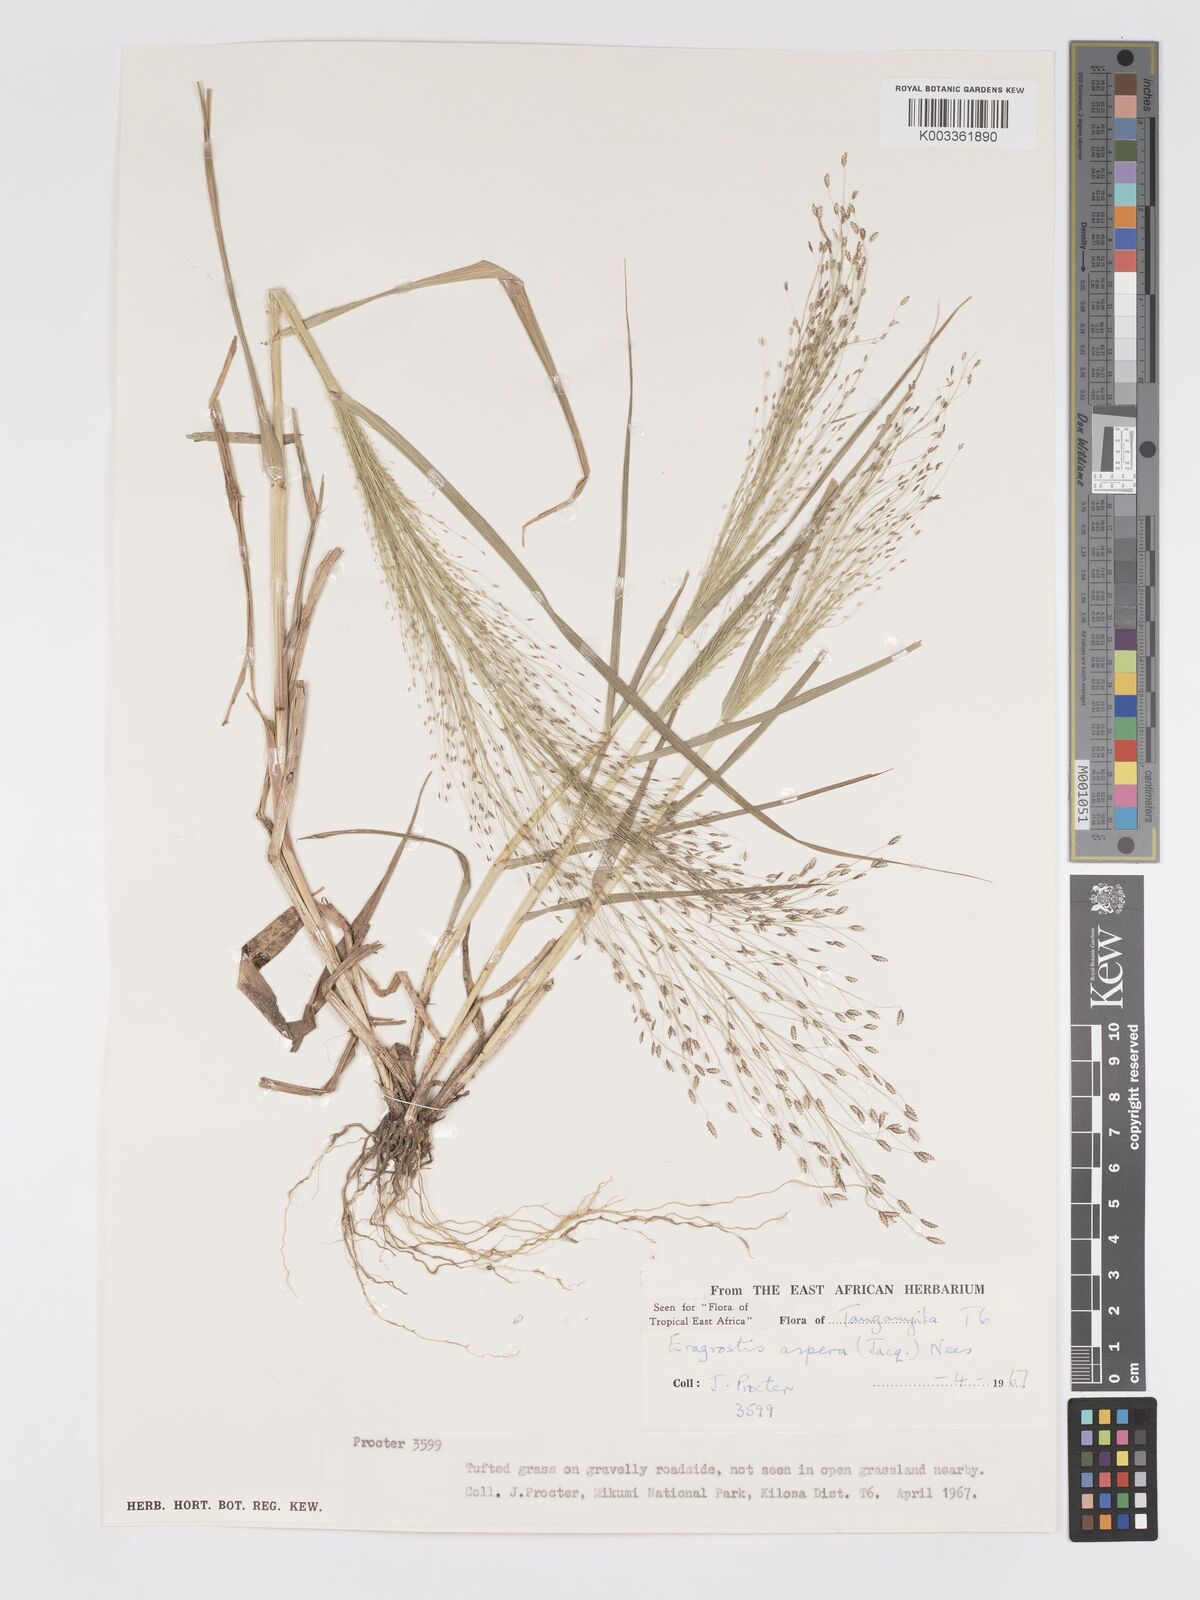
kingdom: Plantae
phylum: Tracheophyta
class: Liliopsida
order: Poales
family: Poaceae
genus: Eragrostis
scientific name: Eragrostis aspera
